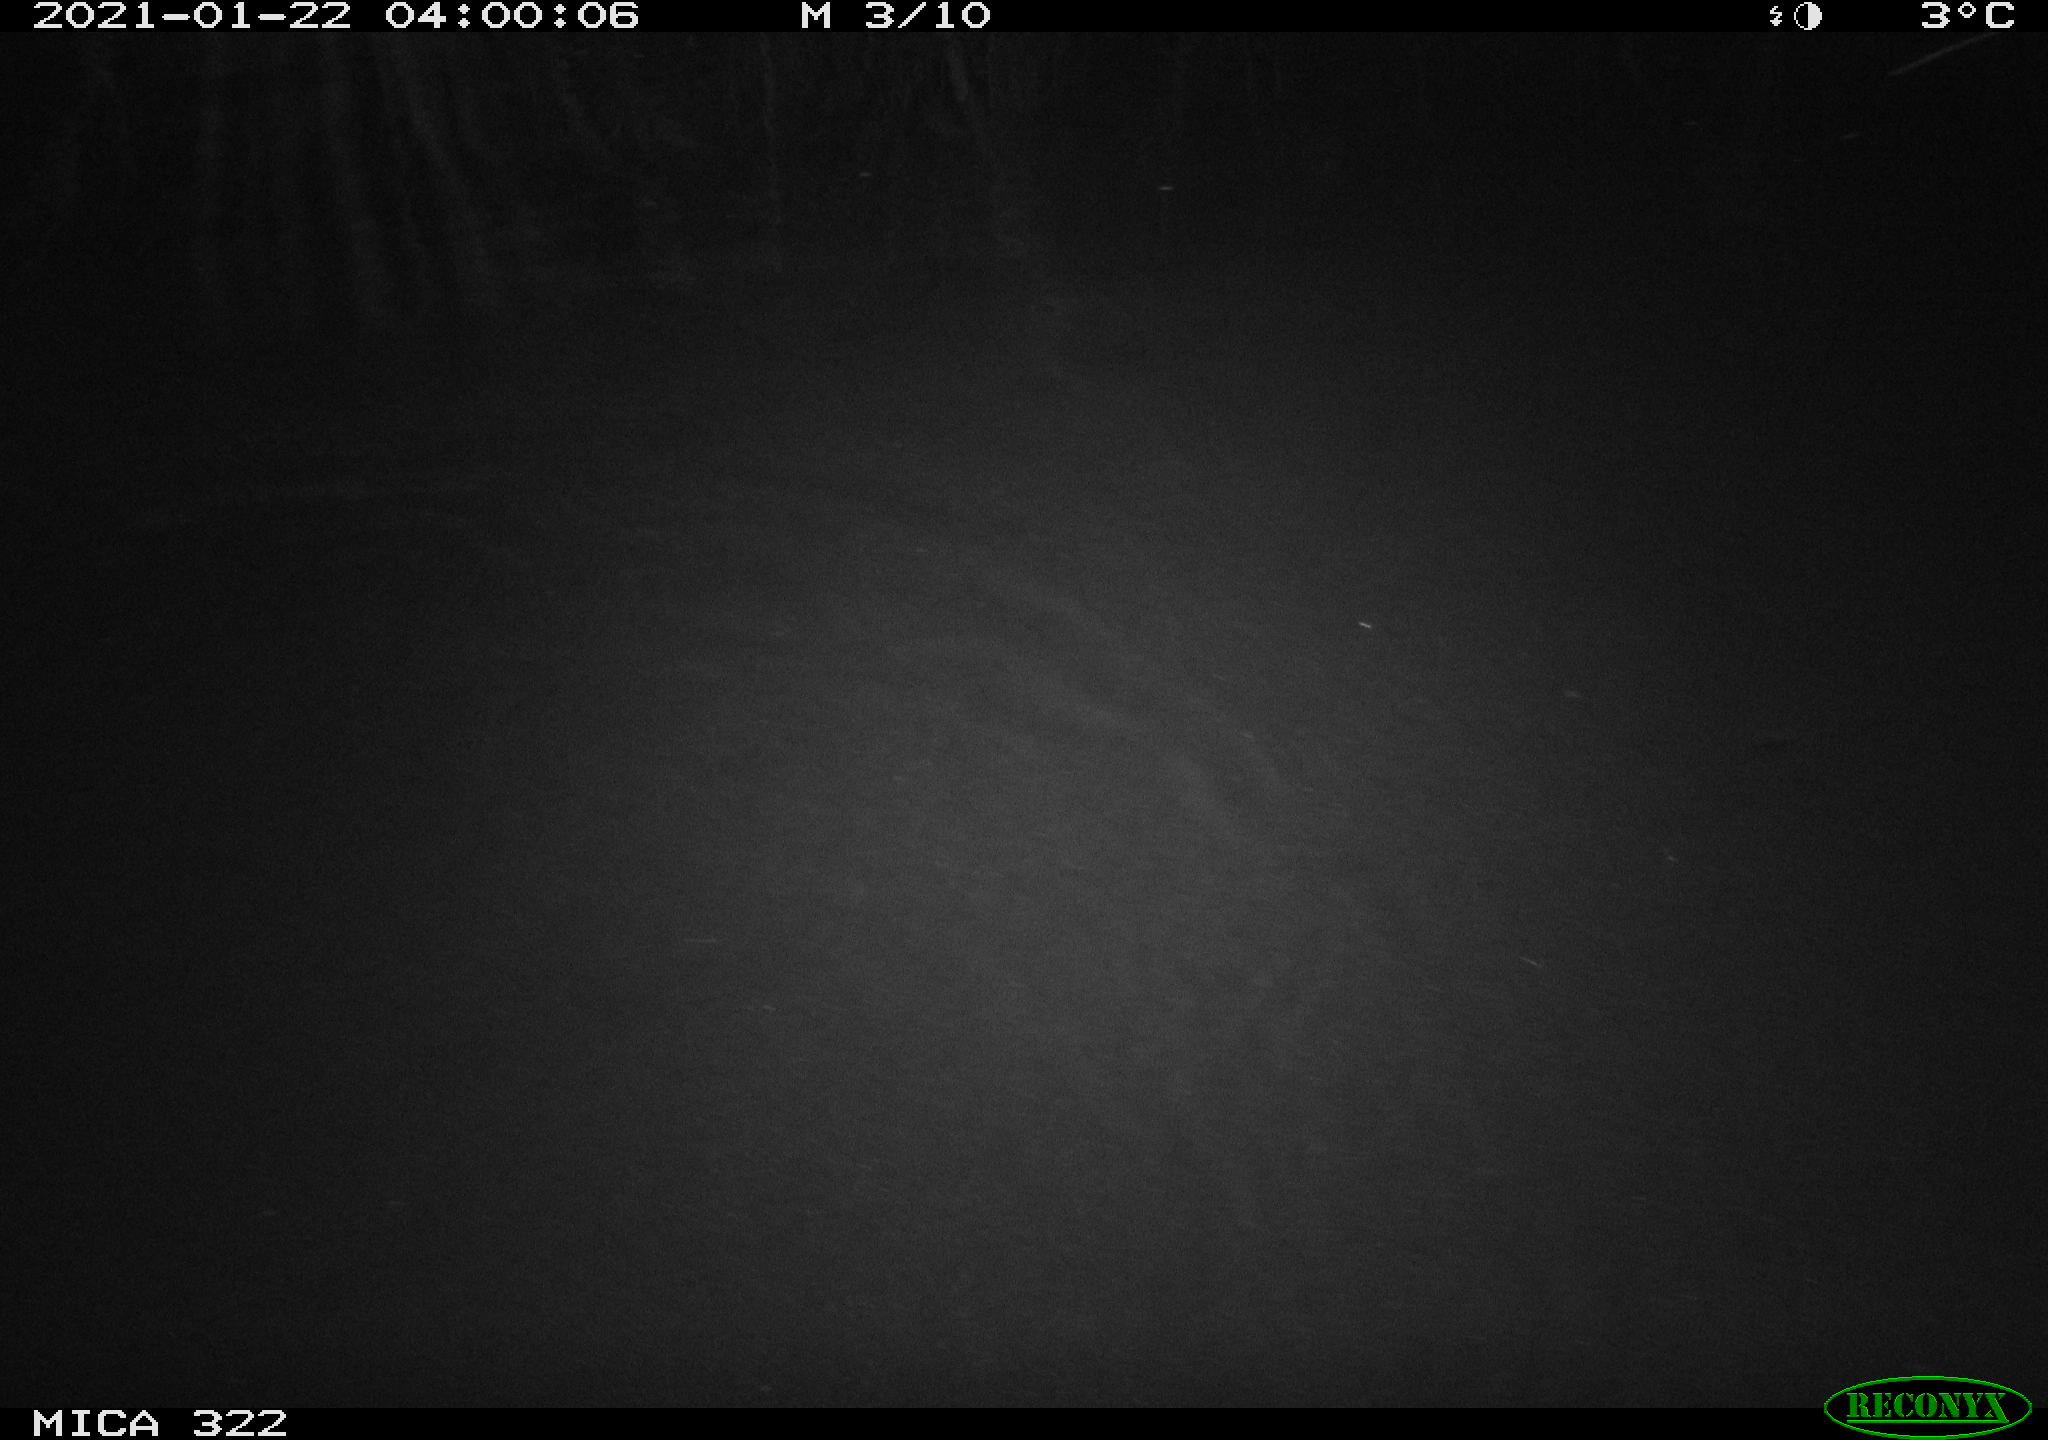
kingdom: Animalia
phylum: Chordata
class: Mammalia
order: Rodentia
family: Muridae
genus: Rattus
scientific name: Rattus norvegicus
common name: Brown rat
